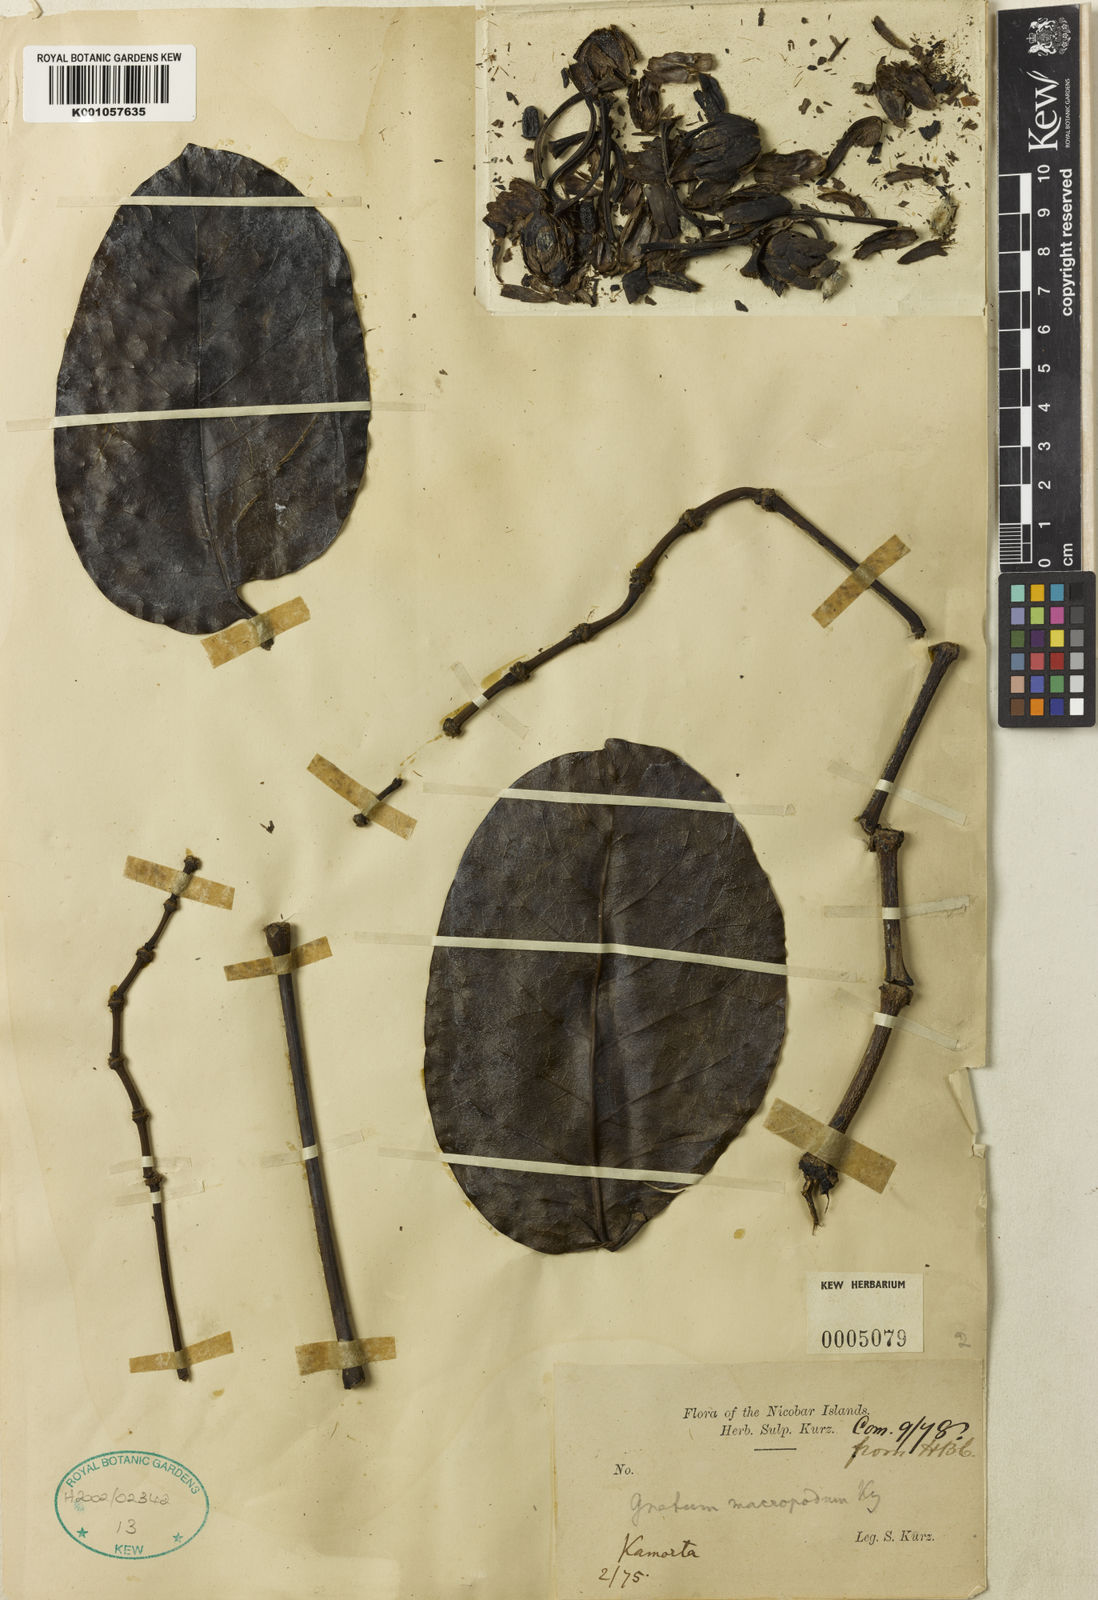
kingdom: Plantae
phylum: Tracheophyta
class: Gnetopsida
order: Gnetales
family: Gnetaceae
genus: Gnetum
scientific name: Gnetum latifolium
